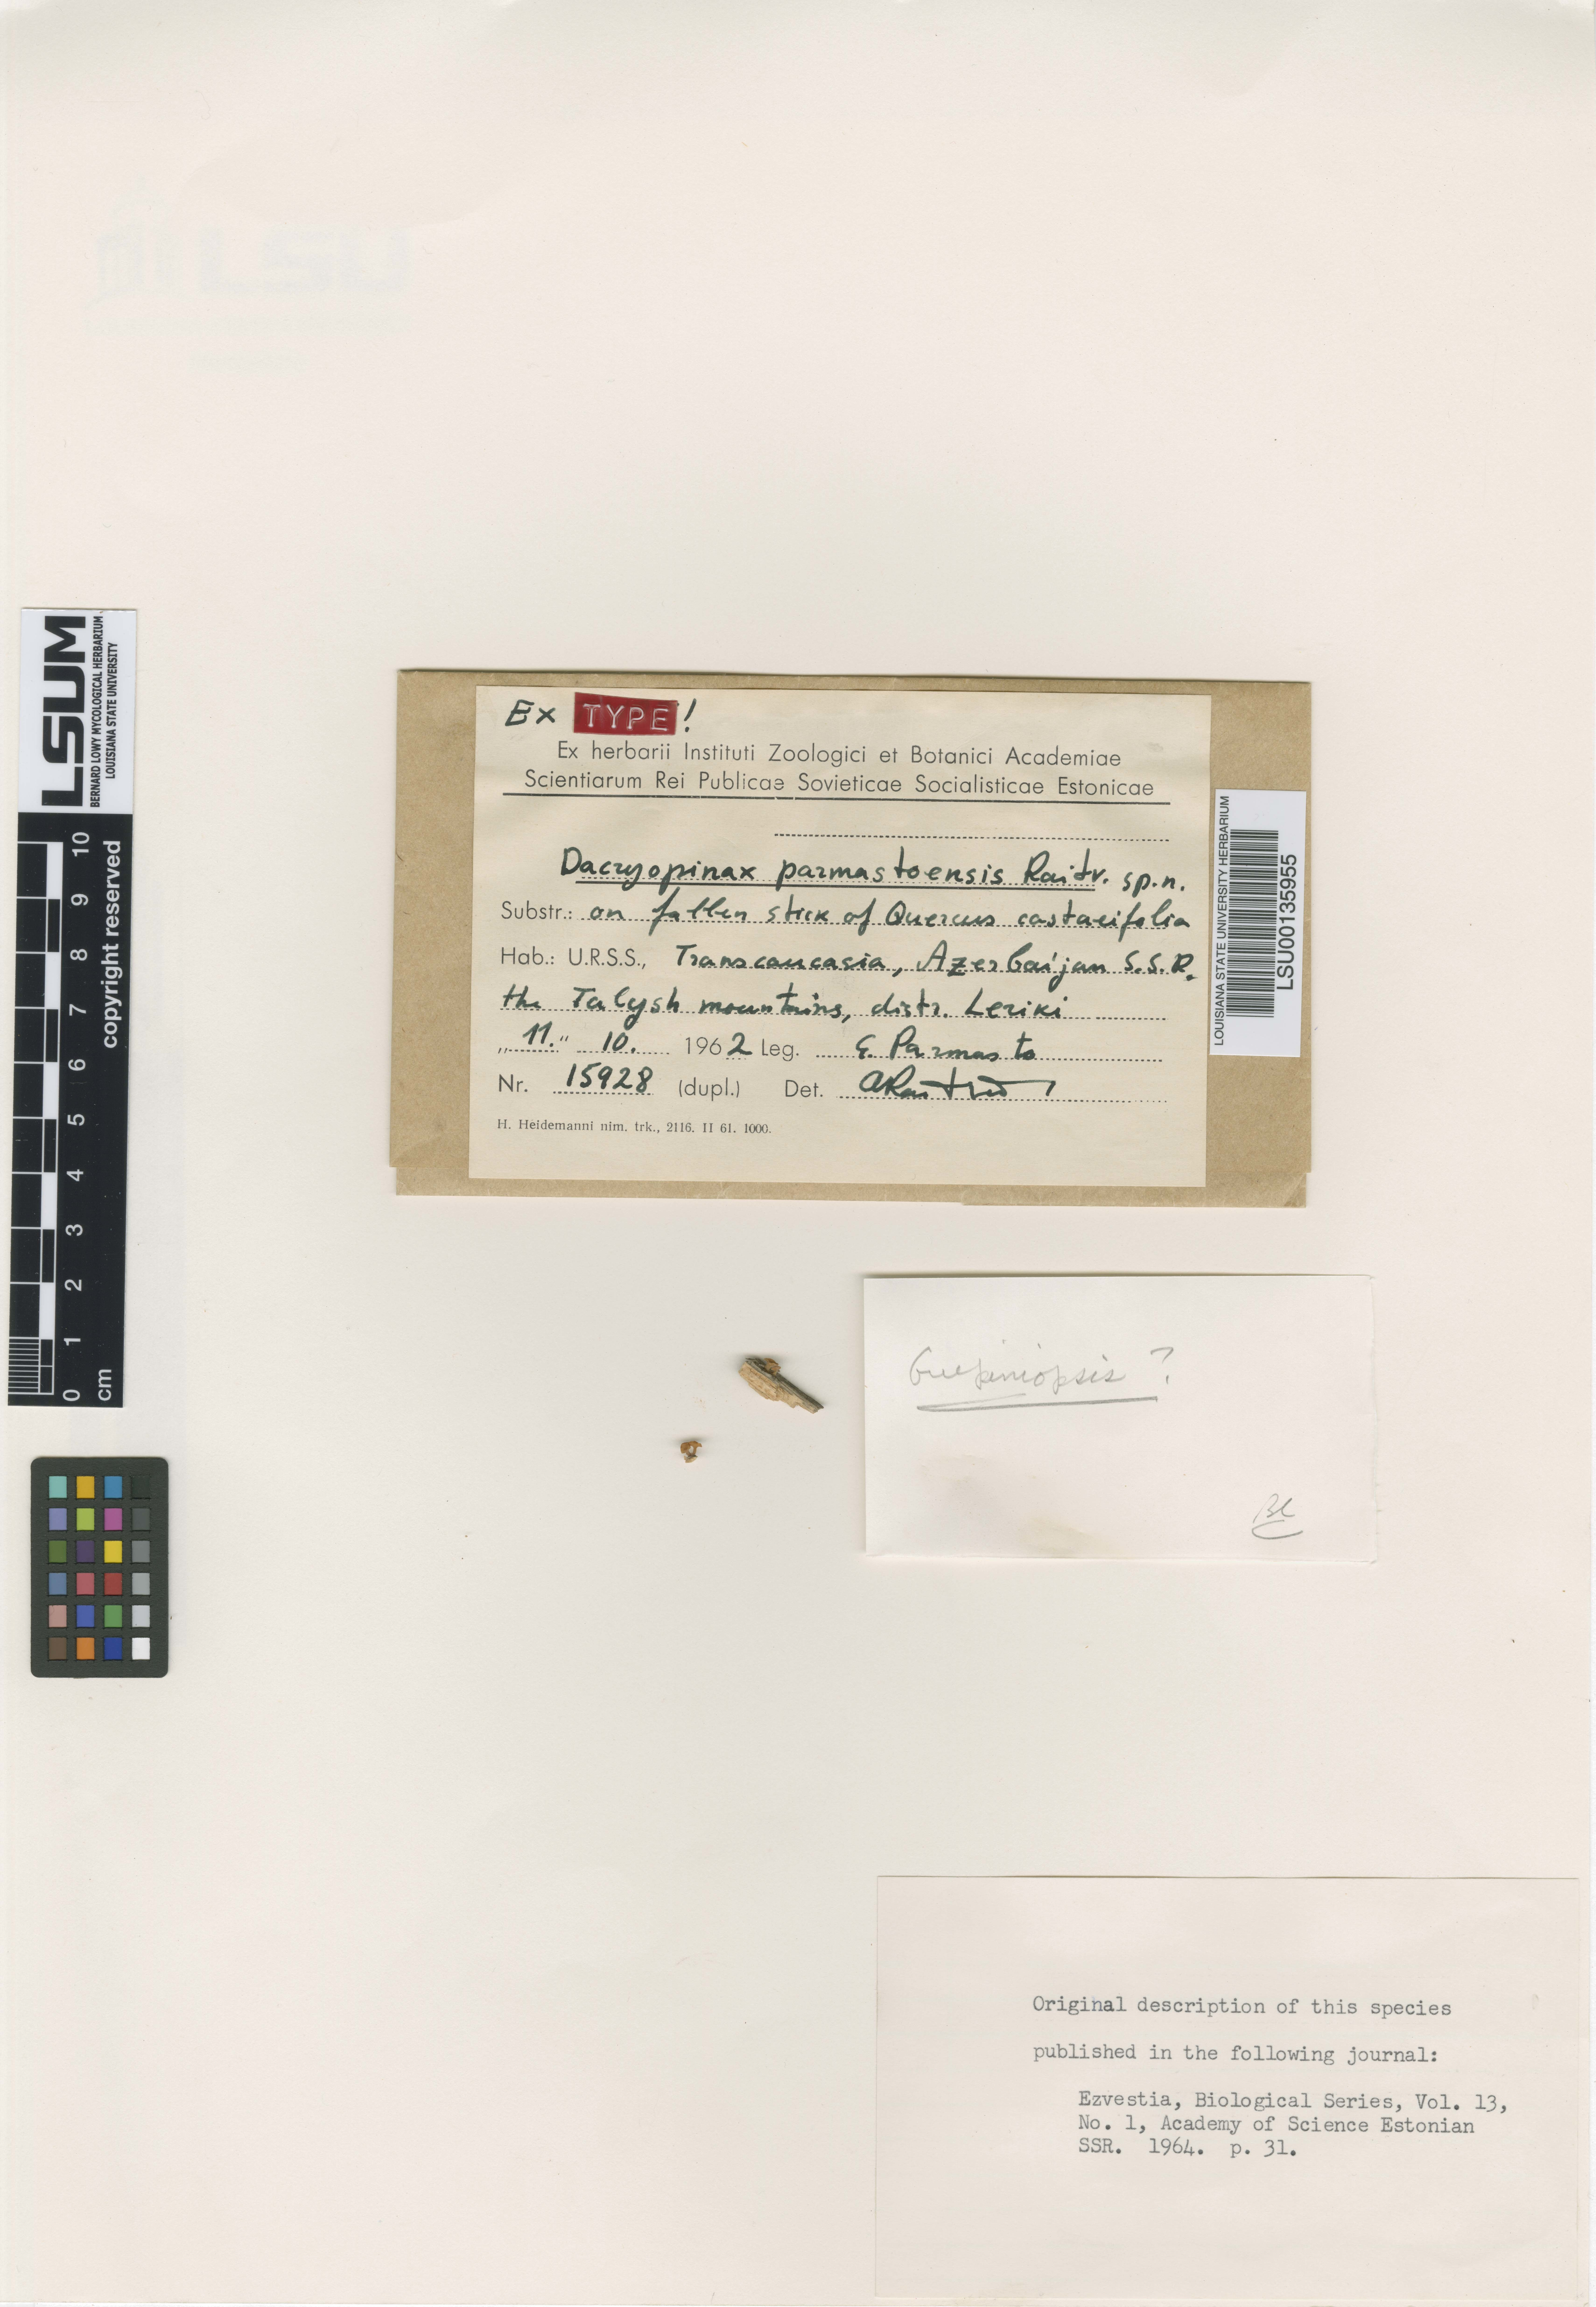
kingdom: Fungi
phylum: Basidiomycota
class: Dacrymycetes
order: Dacrymycetales
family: Dacrymycetaceae
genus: Dacryopinax
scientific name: Dacryopinax parmastoensis
